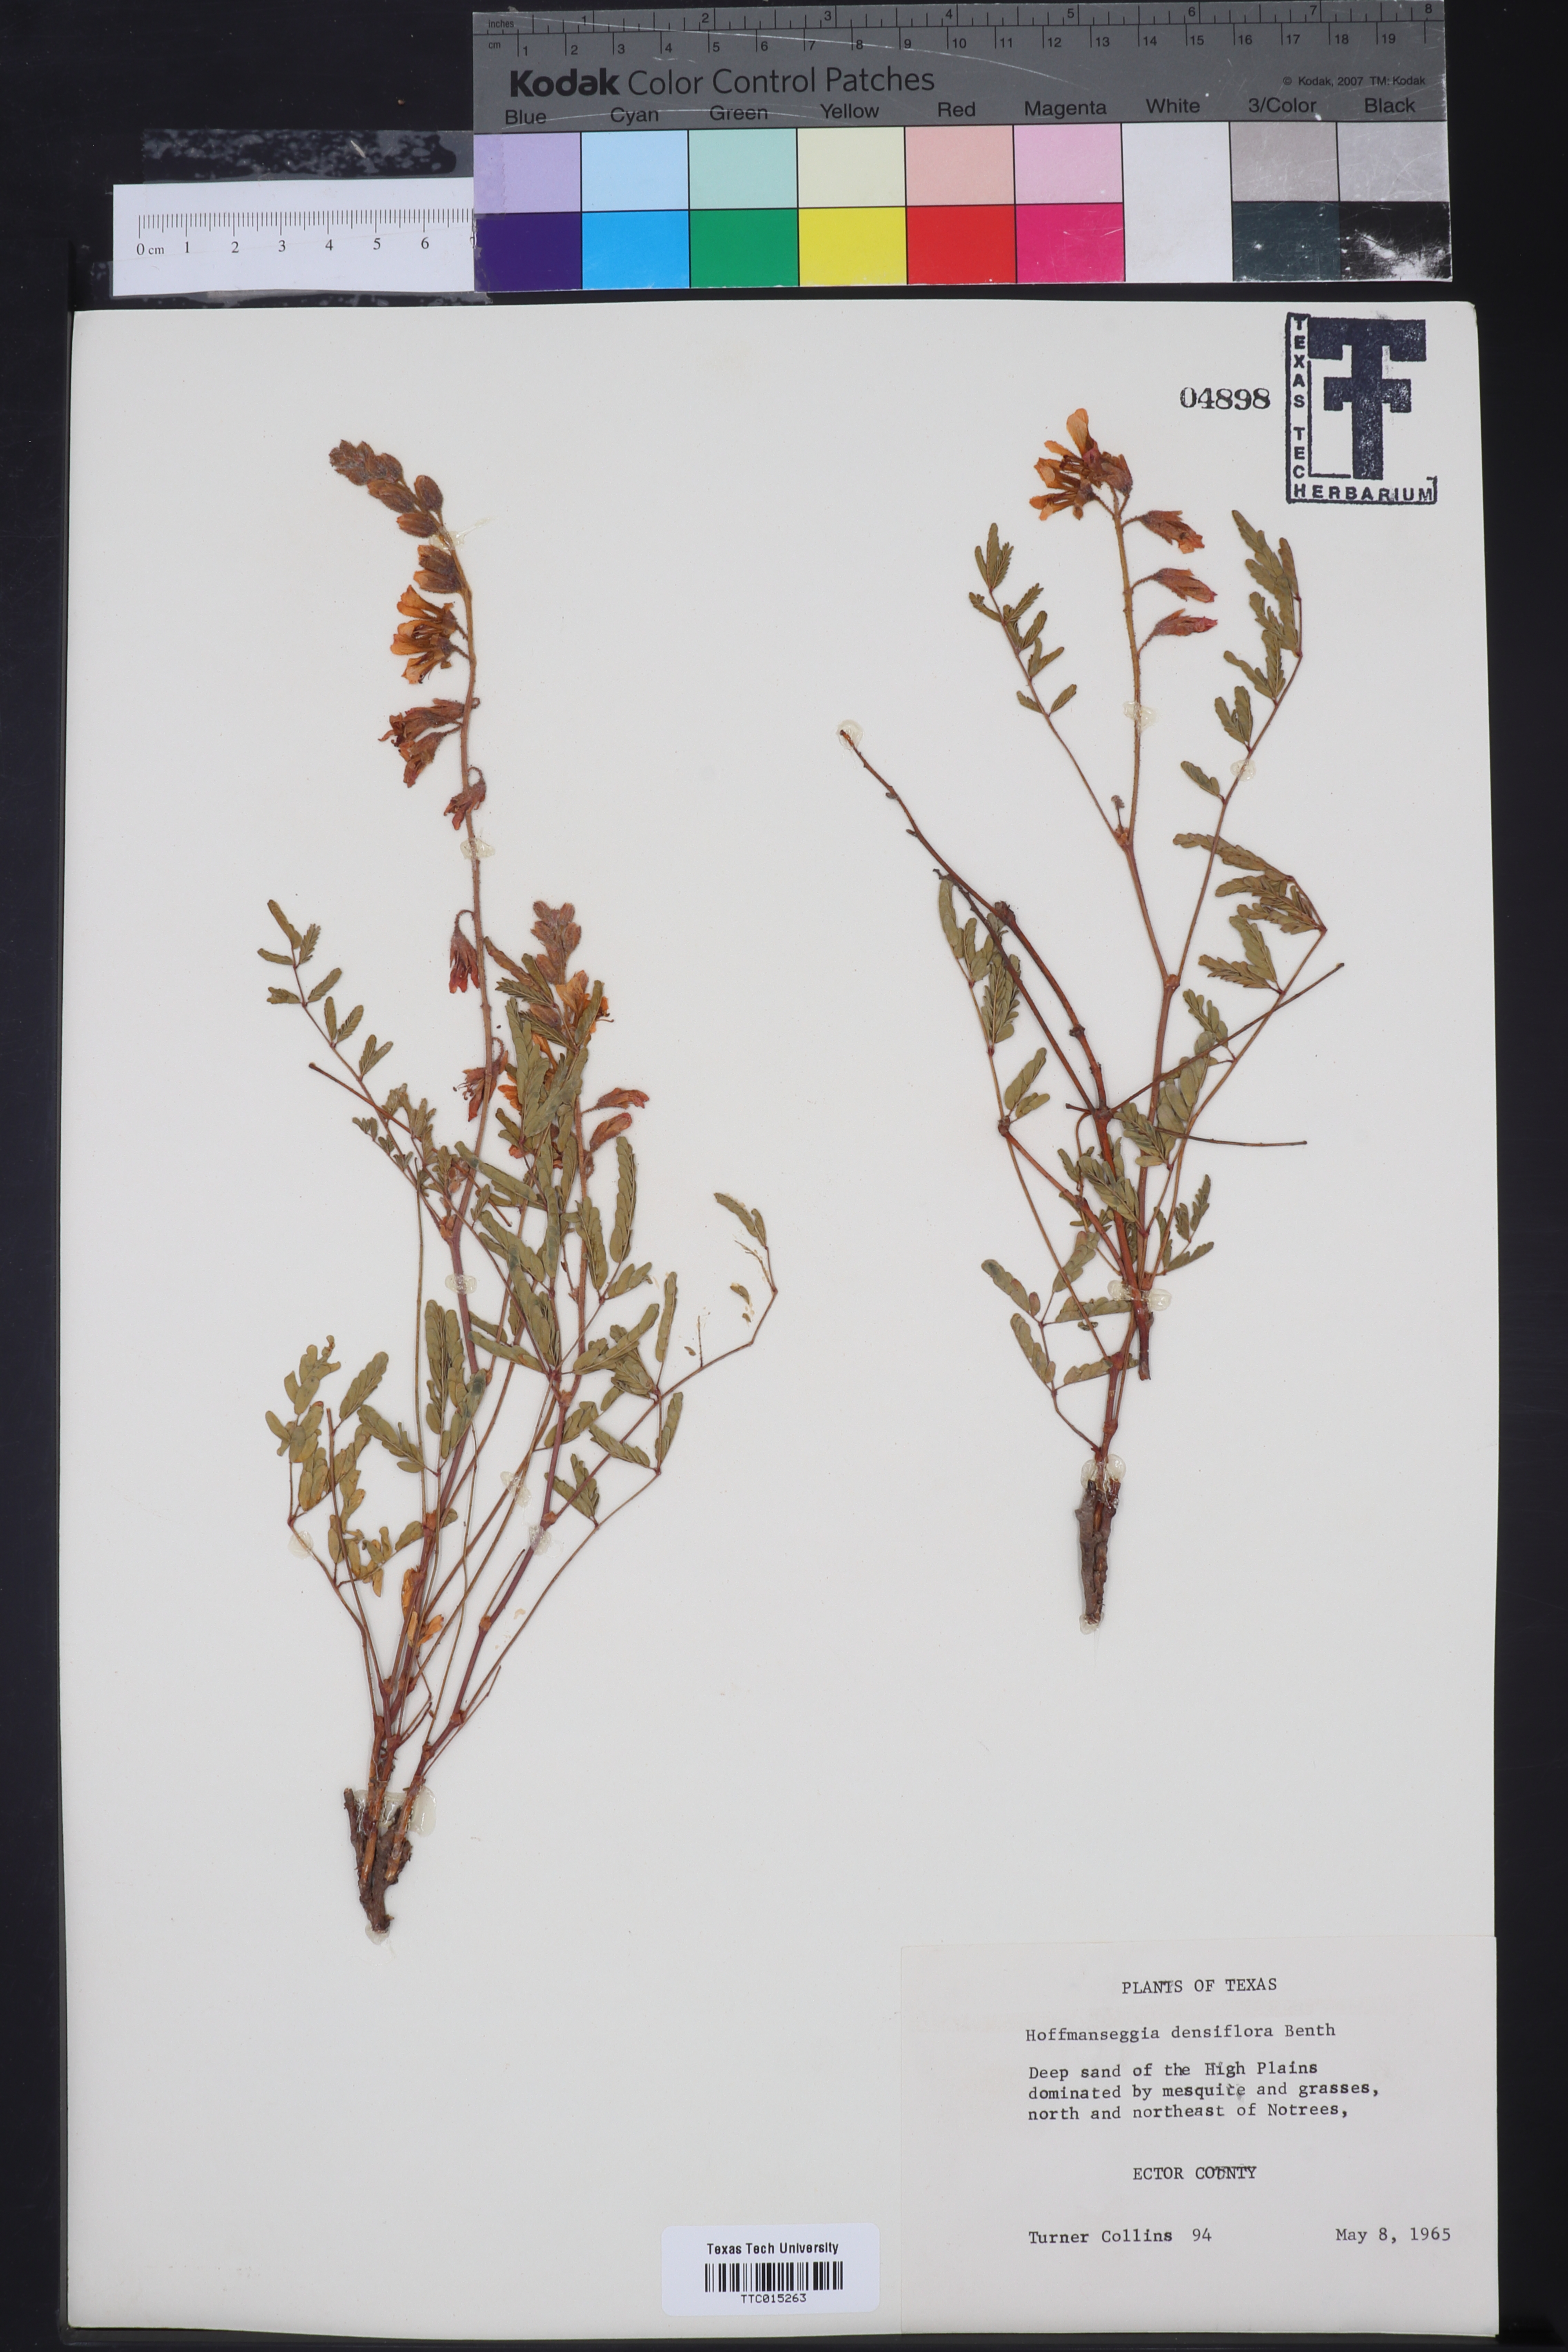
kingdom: Plantae
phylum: Tracheophyta
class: Magnoliopsida
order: Fabales
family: Fabaceae
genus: Hoffmannseggia
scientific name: Hoffmannseggia glauca
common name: Pignut
